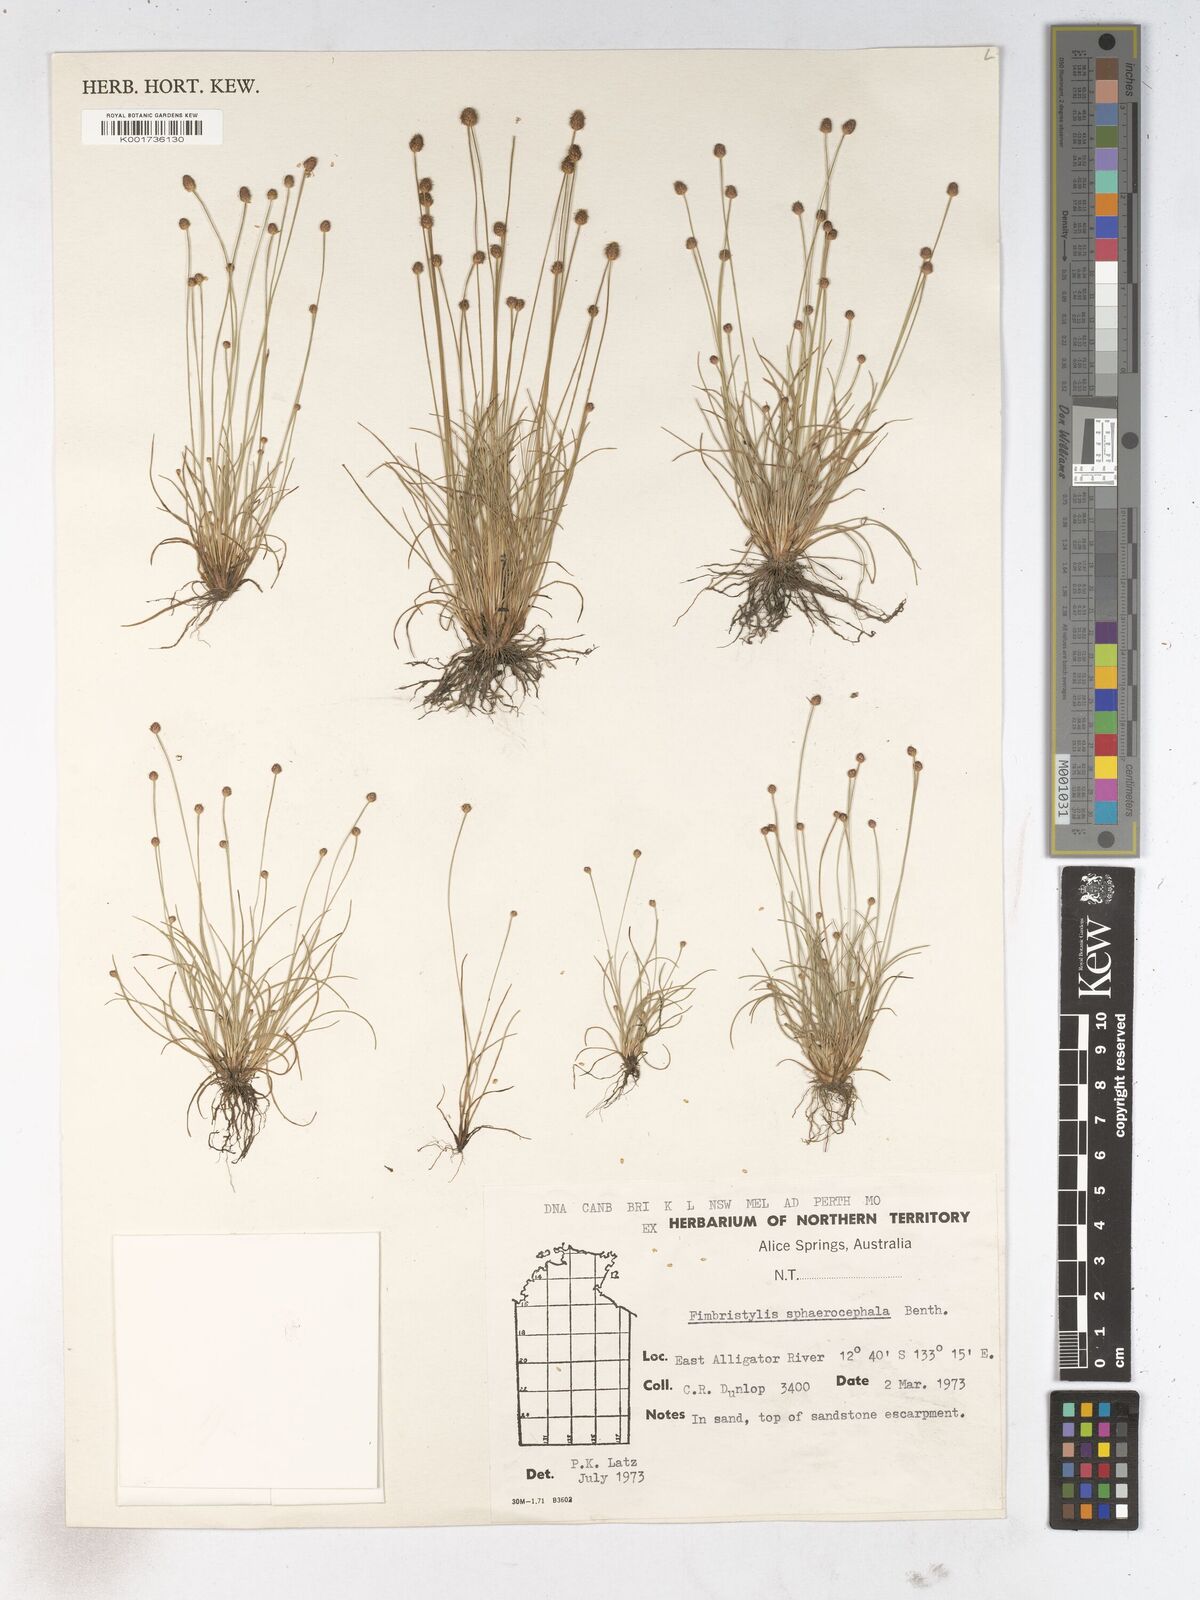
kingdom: Plantae
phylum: Tracheophyta
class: Liliopsida
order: Poales
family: Cyperaceae
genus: Fimbristylis
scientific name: Fimbristylis sphaerocephala
